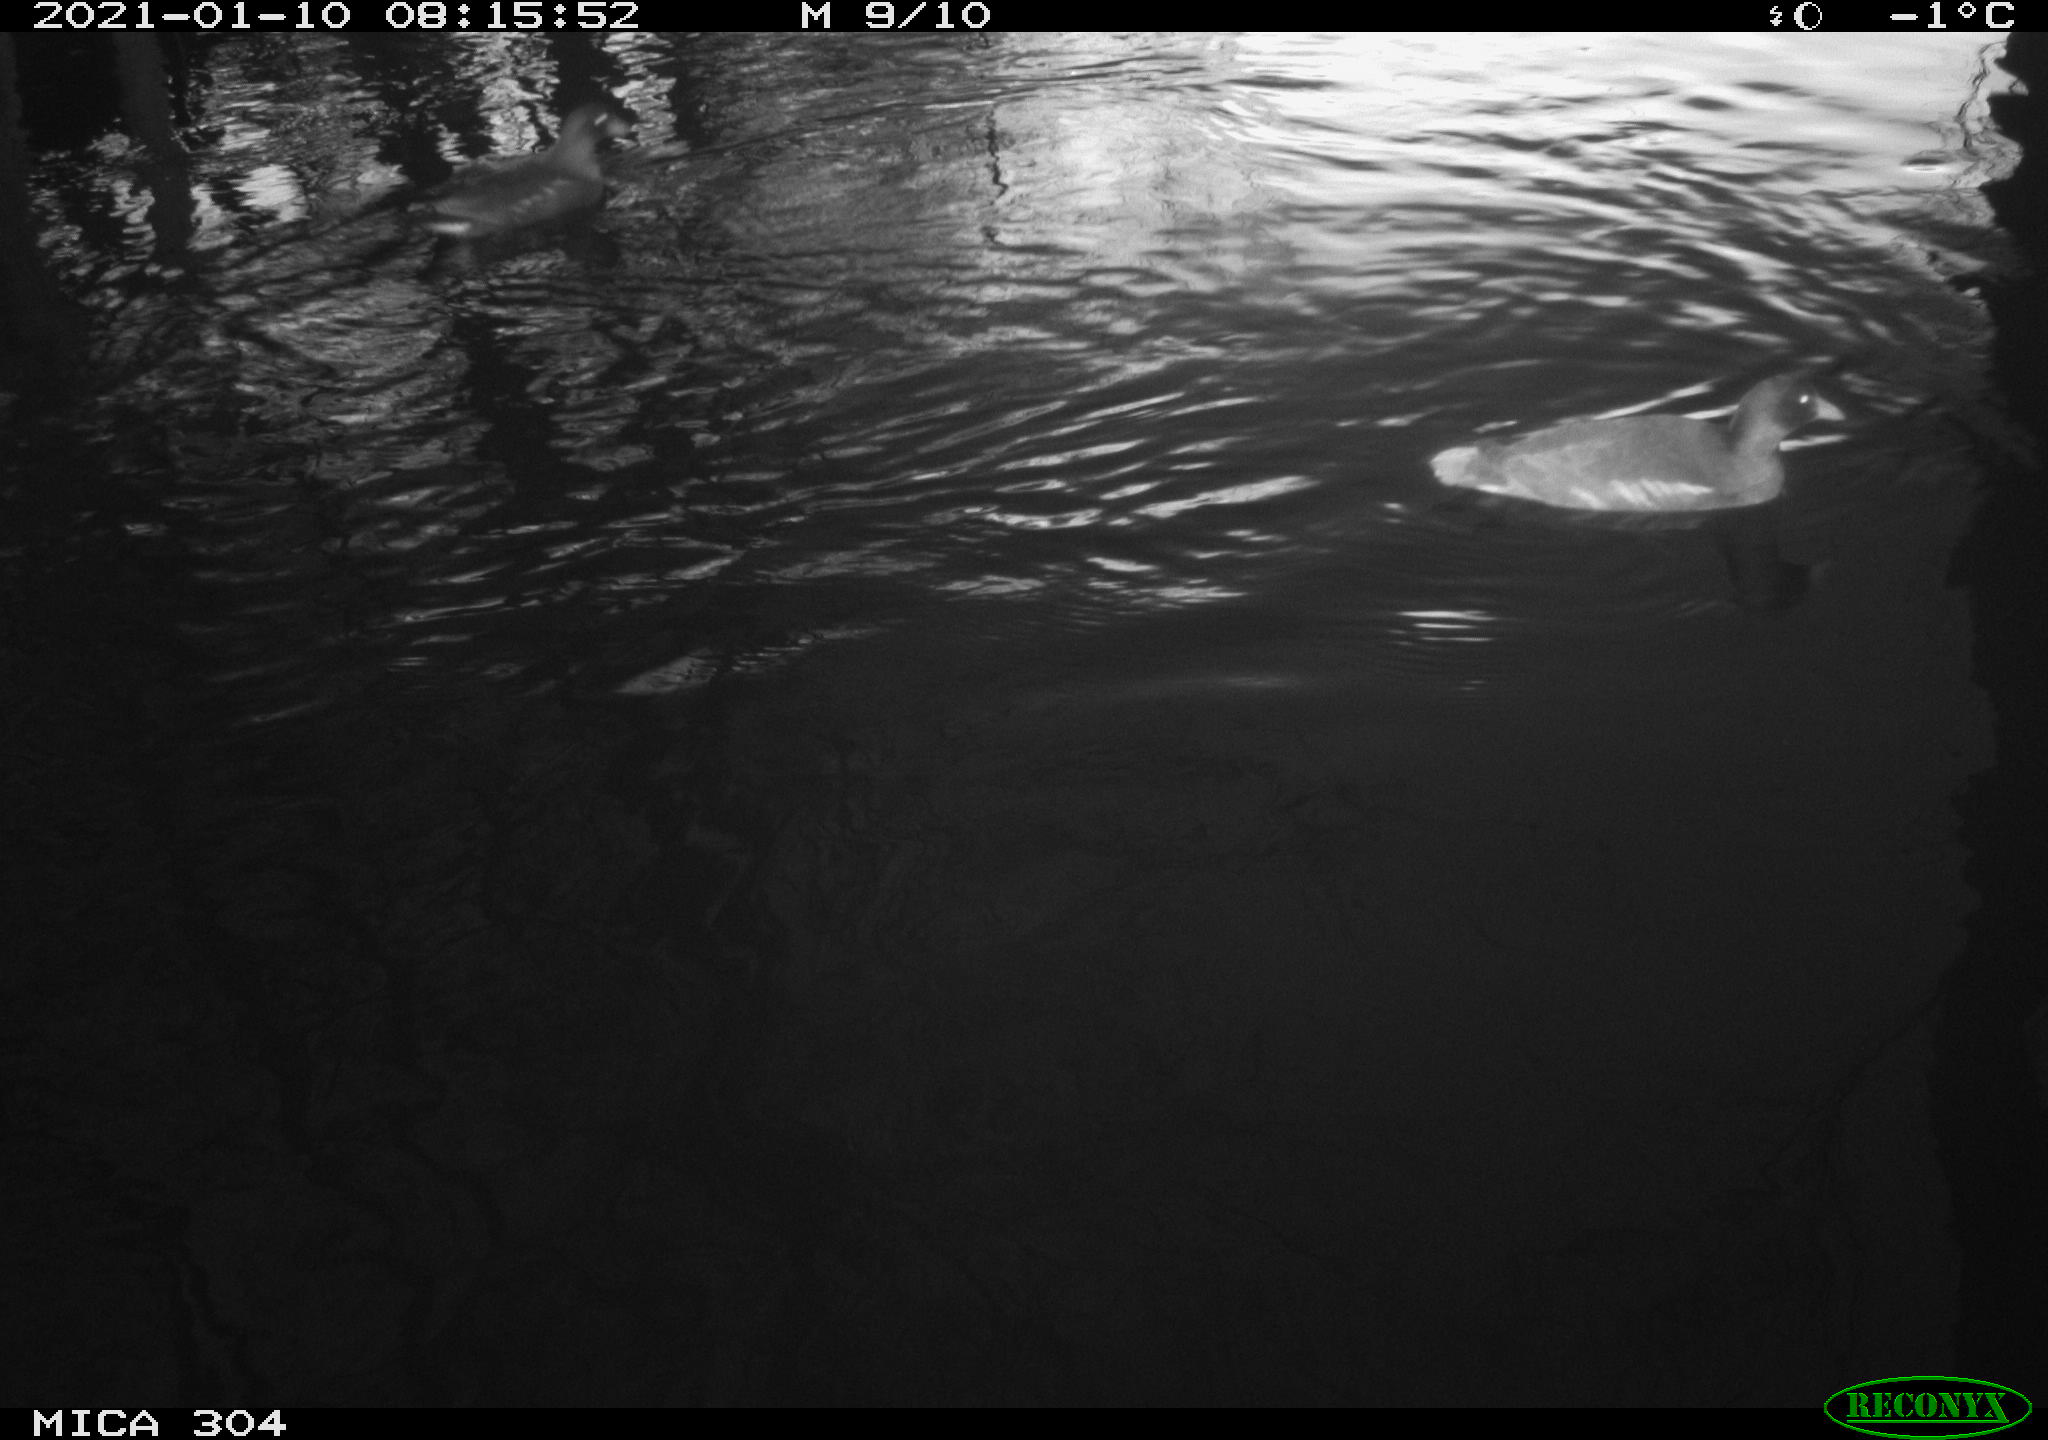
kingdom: Animalia
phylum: Chordata
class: Aves
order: Gruiformes
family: Rallidae
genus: Gallinula
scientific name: Gallinula chloropus
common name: Common moorhen
